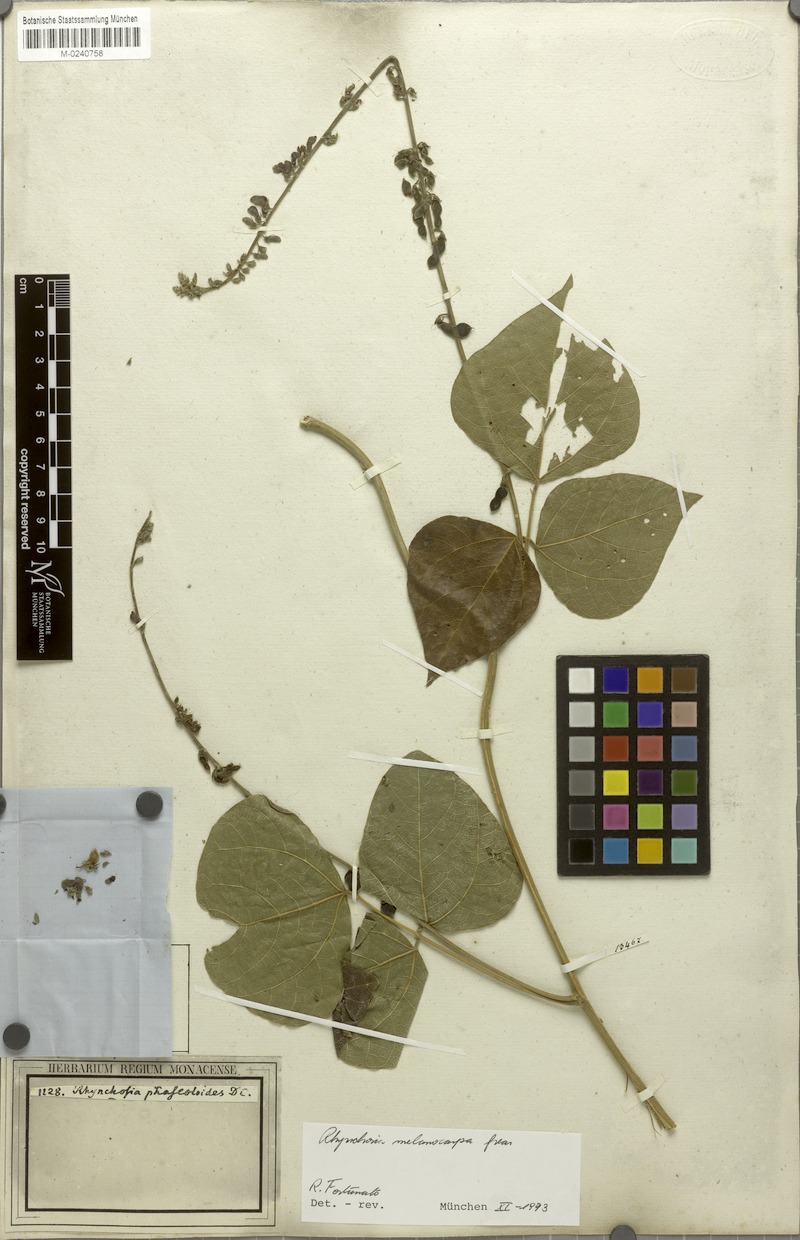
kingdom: Plantae
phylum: Tracheophyta
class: Magnoliopsida
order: Fabales
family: Fabaceae
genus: Rhynchosia
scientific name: Rhynchosia melanocarpa
